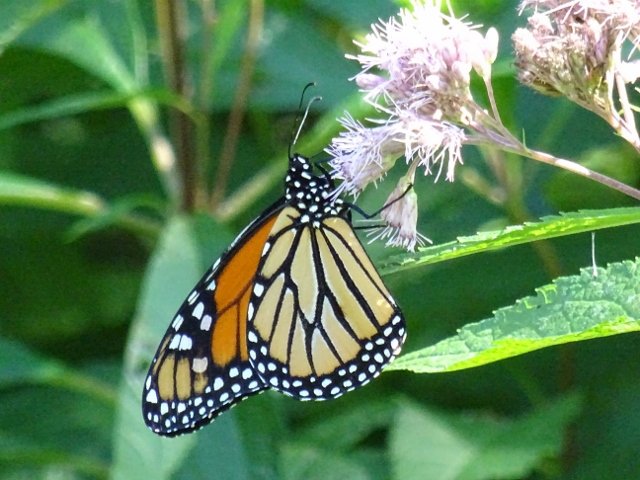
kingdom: Animalia
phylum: Arthropoda
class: Insecta
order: Lepidoptera
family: Nymphalidae
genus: Danaus
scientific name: Danaus plexippus
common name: Monarch
